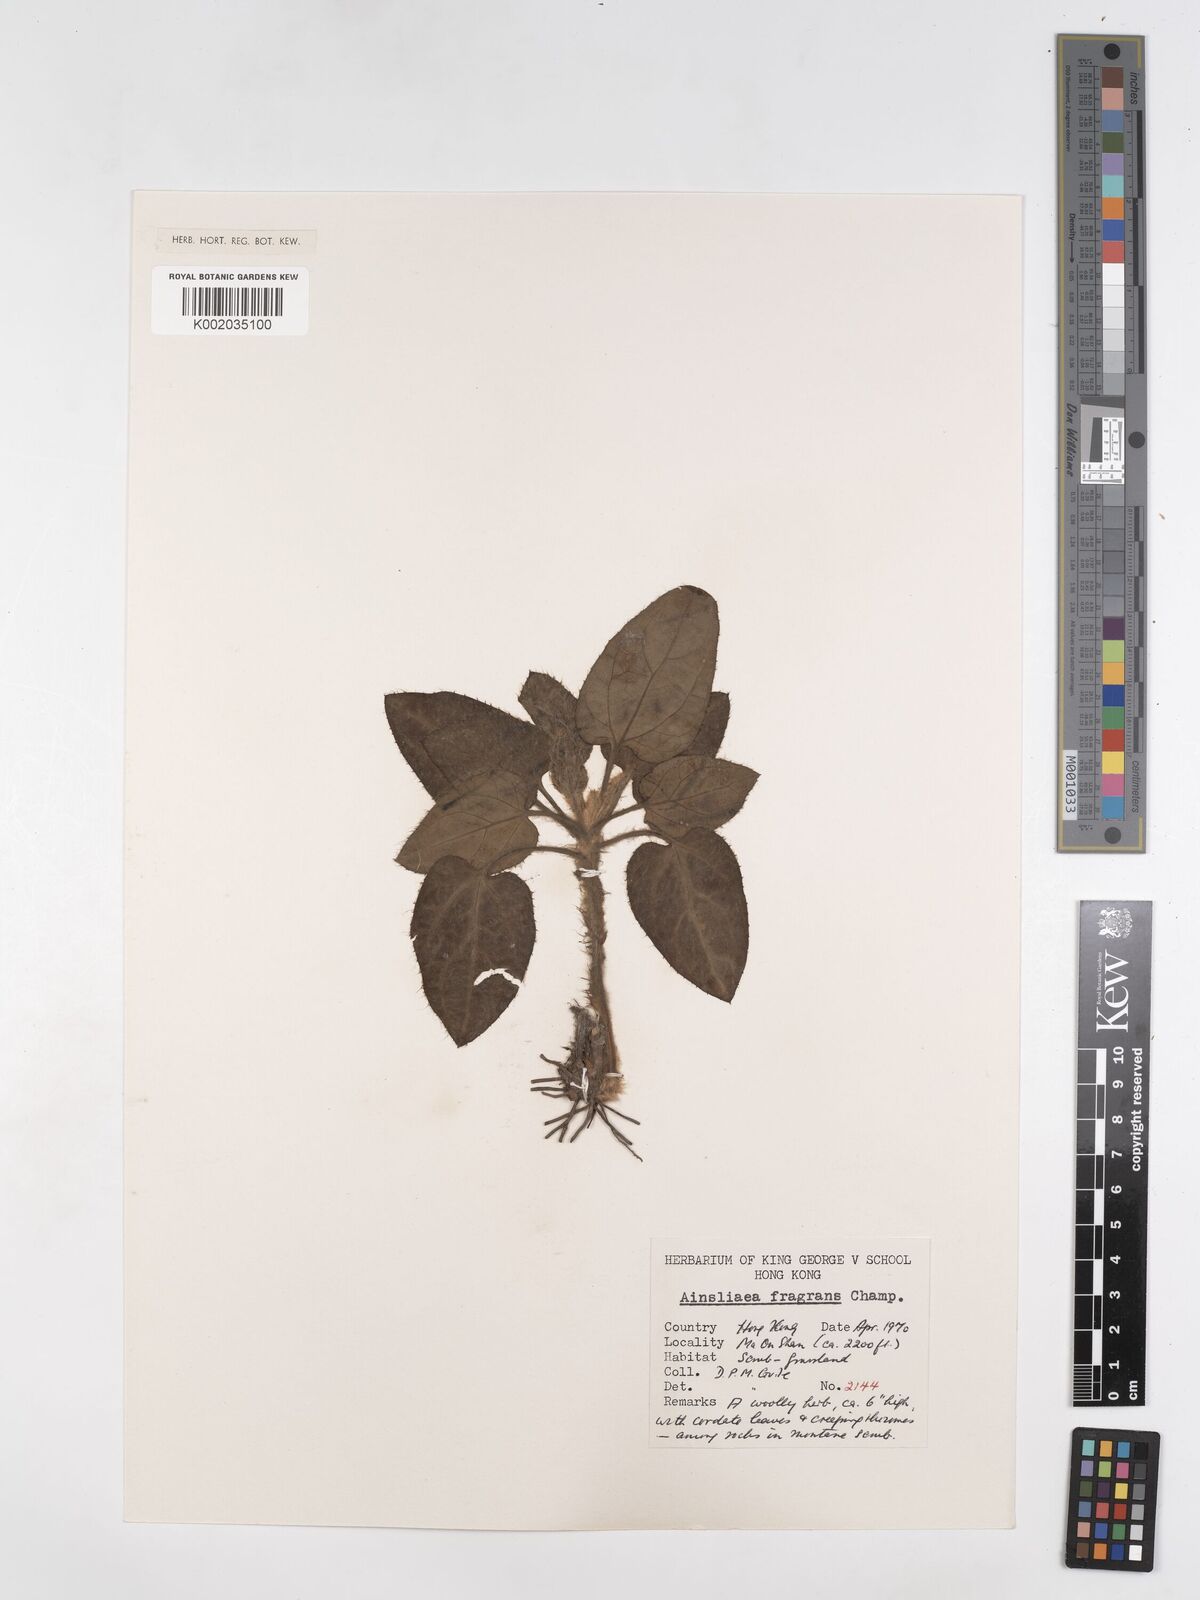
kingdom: Plantae
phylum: Tracheophyta
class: Magnoliopsida
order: Asterales
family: Asteraceae
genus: Ainsliaea
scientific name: Ainsliaea fragrans
